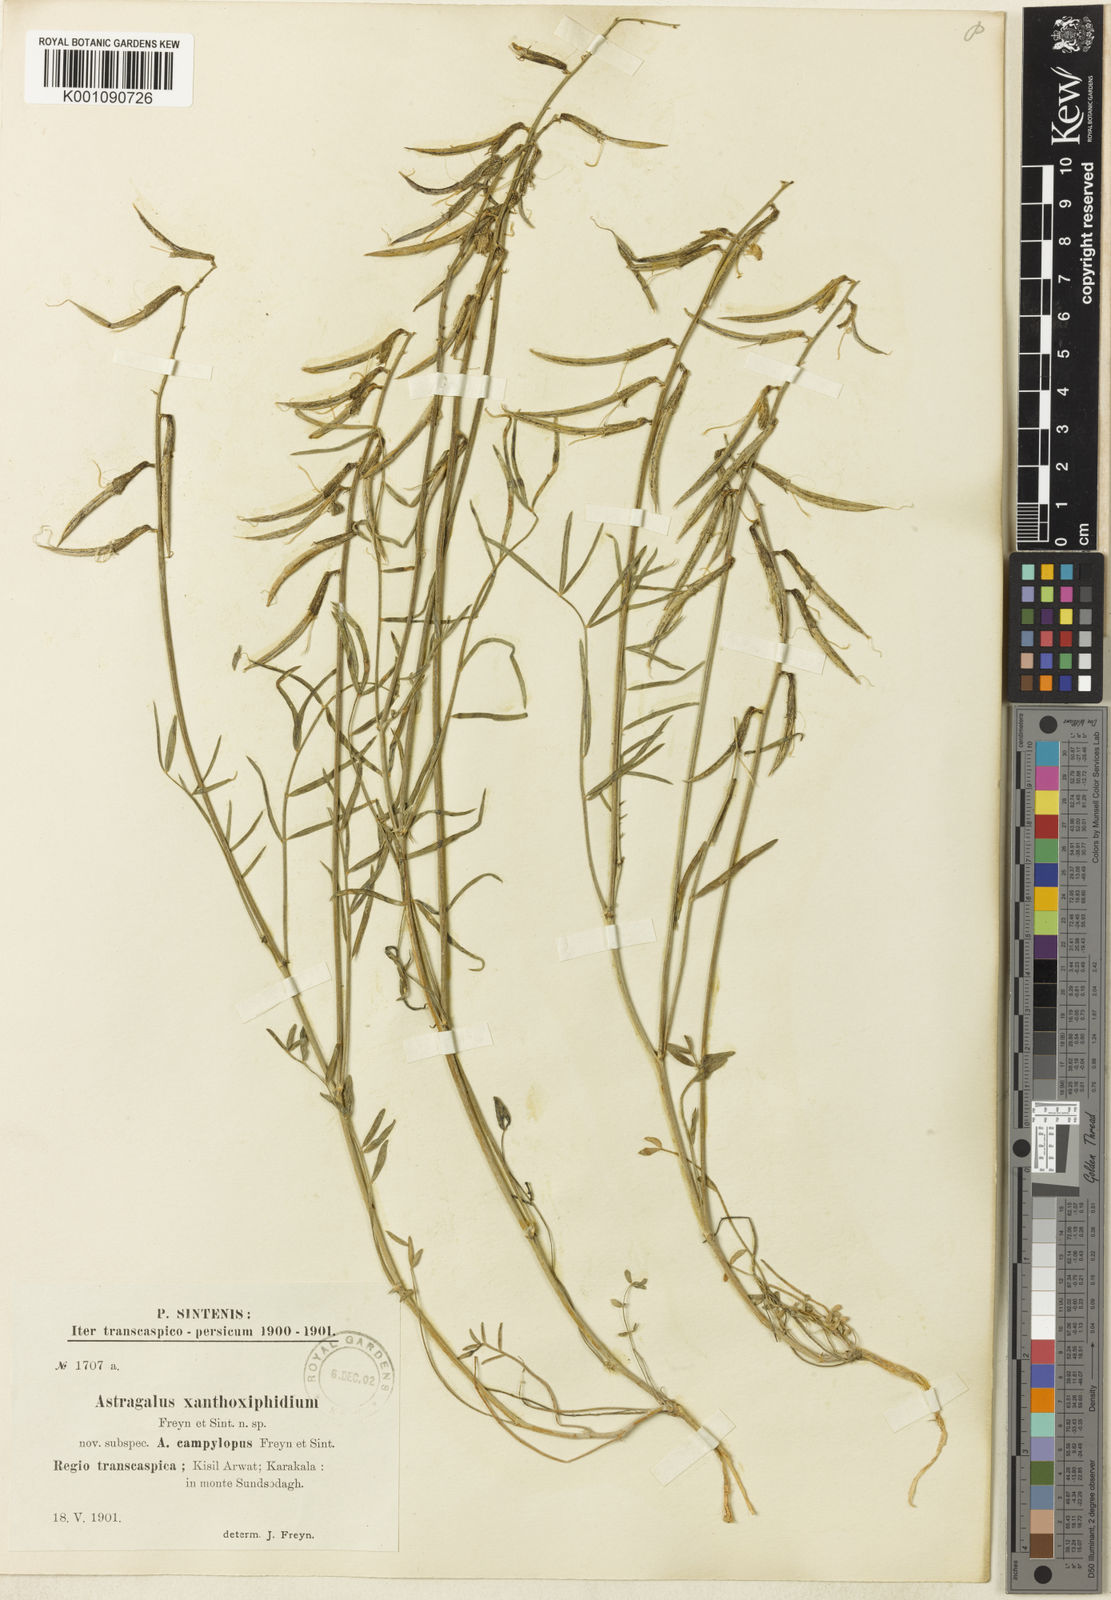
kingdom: Plantae
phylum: Tracheophyta
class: Magnoliopsida
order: Fabales
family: Fabaceae
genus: Astragalus
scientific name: Astragalus
